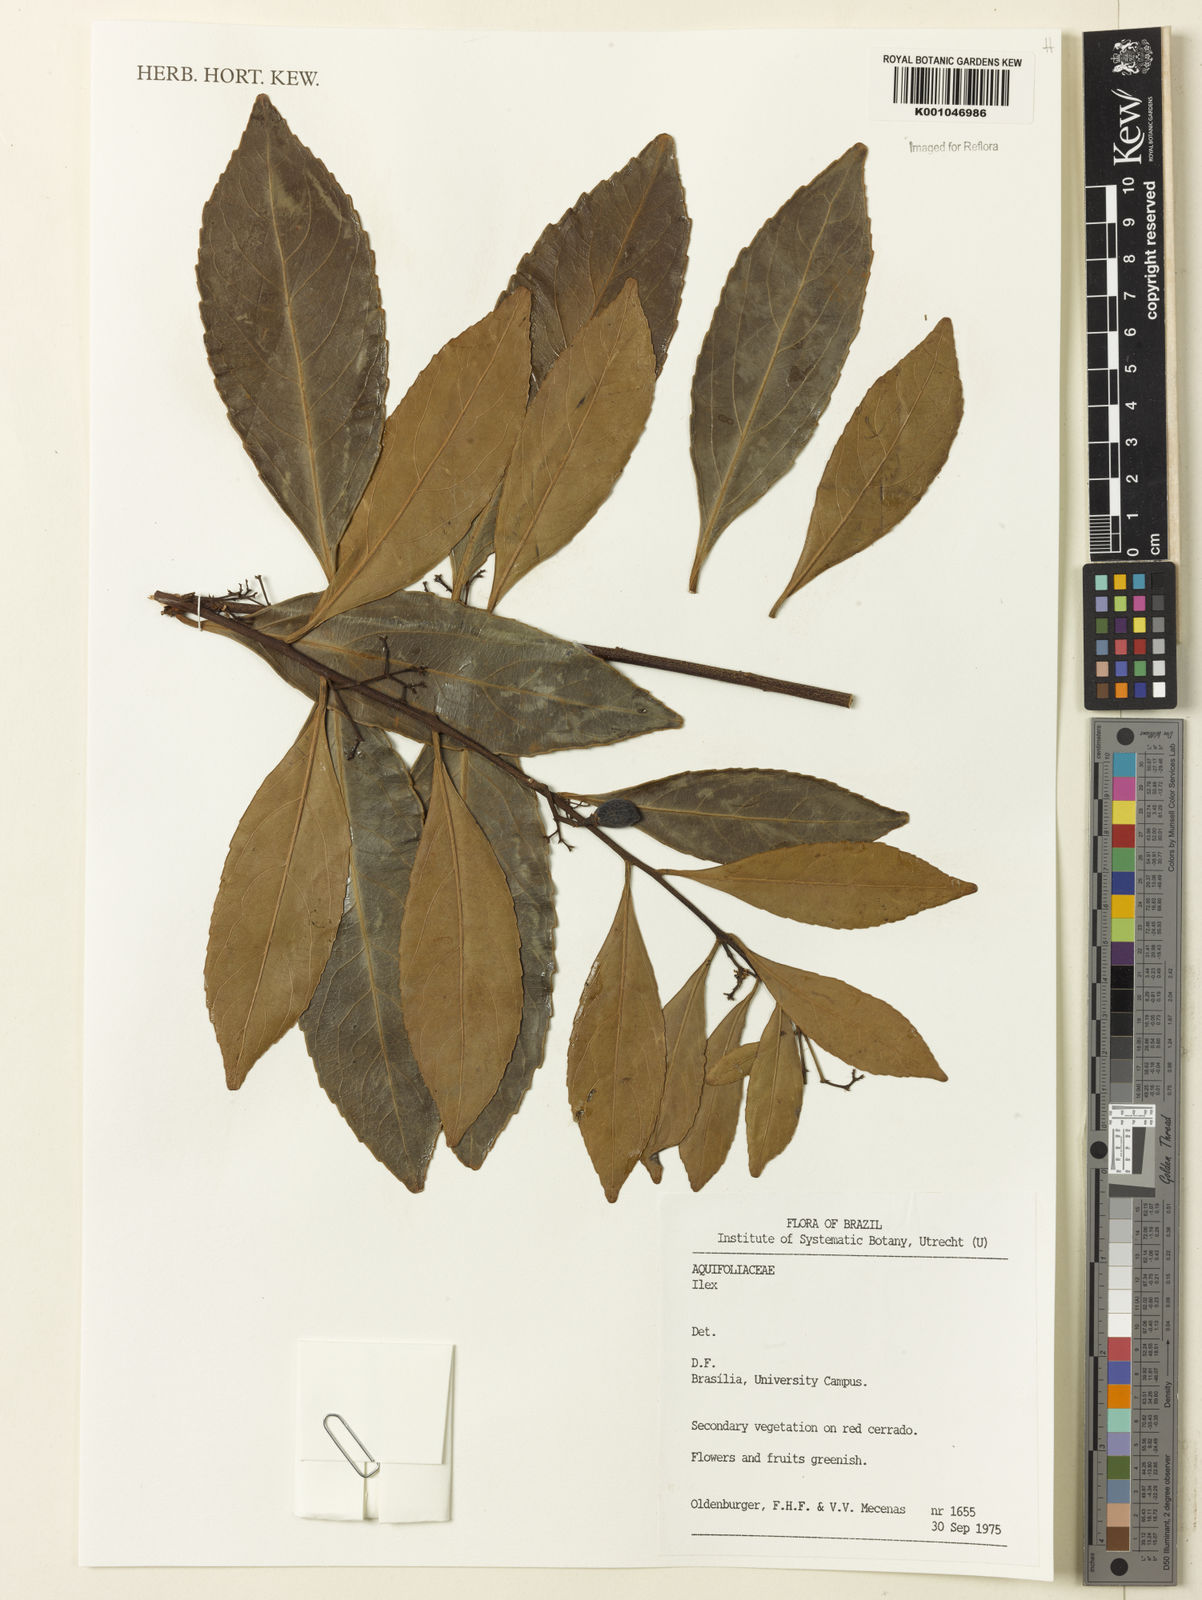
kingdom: Plantae
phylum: Tracheophyta
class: Magnoliopsida
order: Aquifoliales
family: Aquifoliaceae
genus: Ilex
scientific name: Ilex
